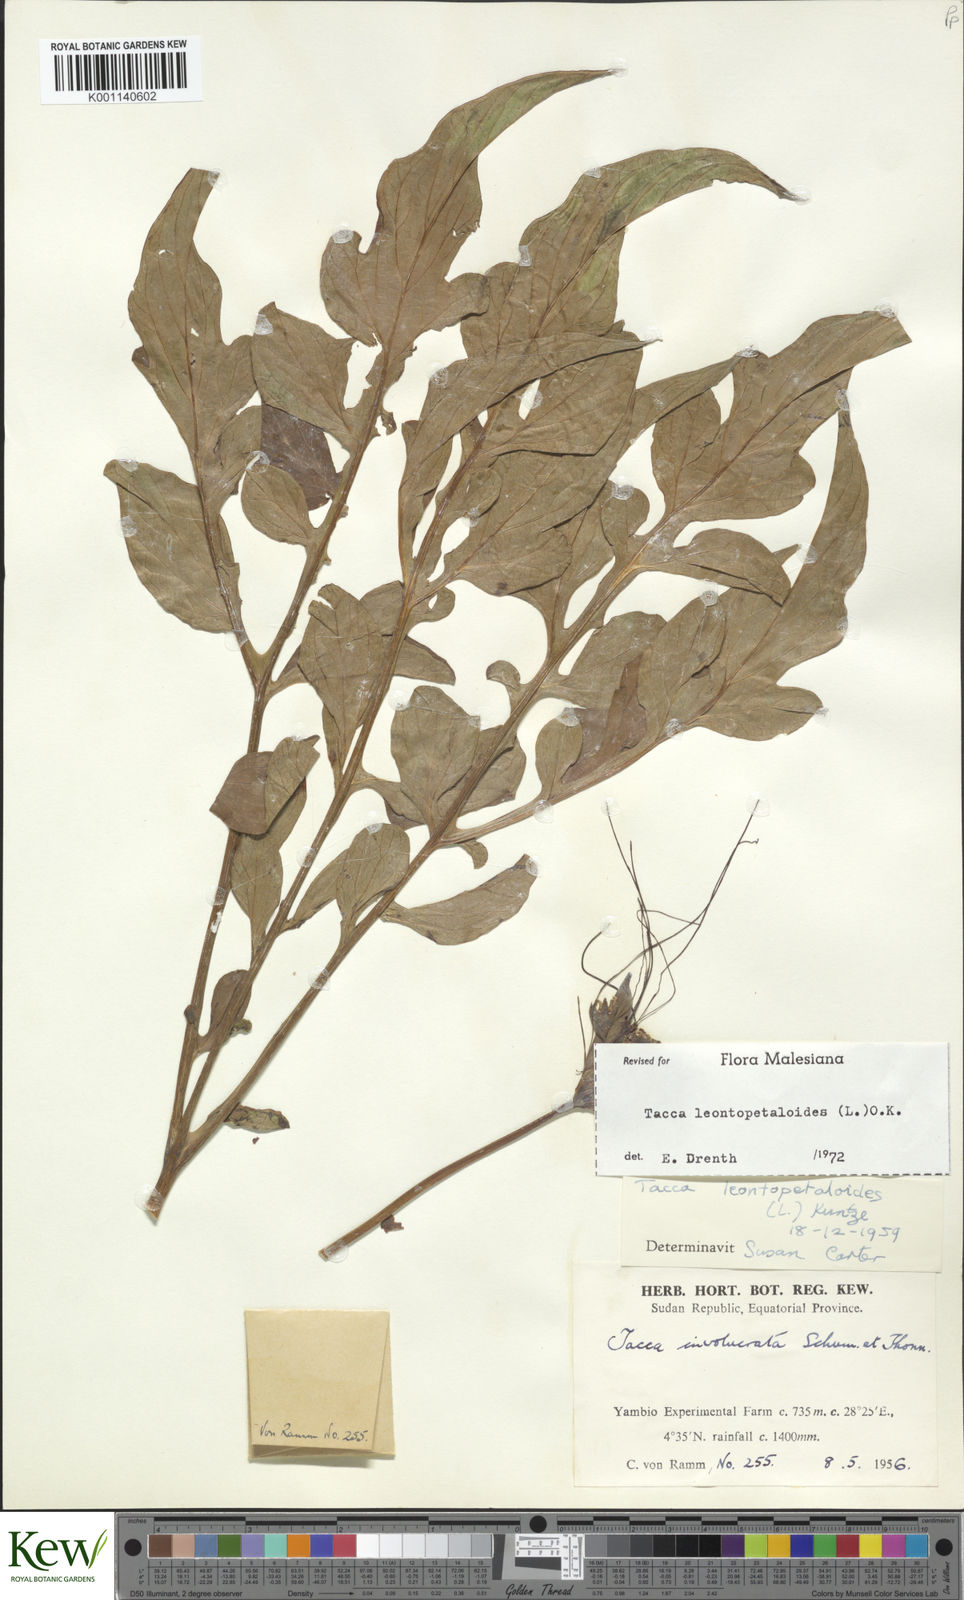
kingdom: Plantae
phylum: Tracheophyta
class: Liliopsida
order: Dioscoreales
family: Dioscoreaceae
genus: Tacca
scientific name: Tacca leontopetaloides
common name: Arrowroot
